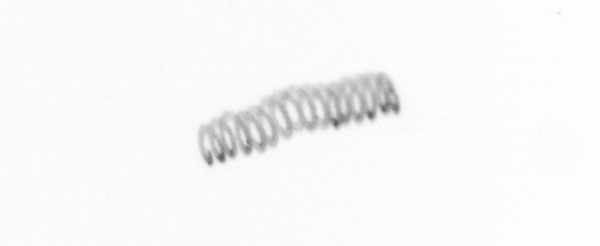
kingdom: Chromista
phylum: Ochrophyta
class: Bacillariophyceae
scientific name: Bacillariophyceae
